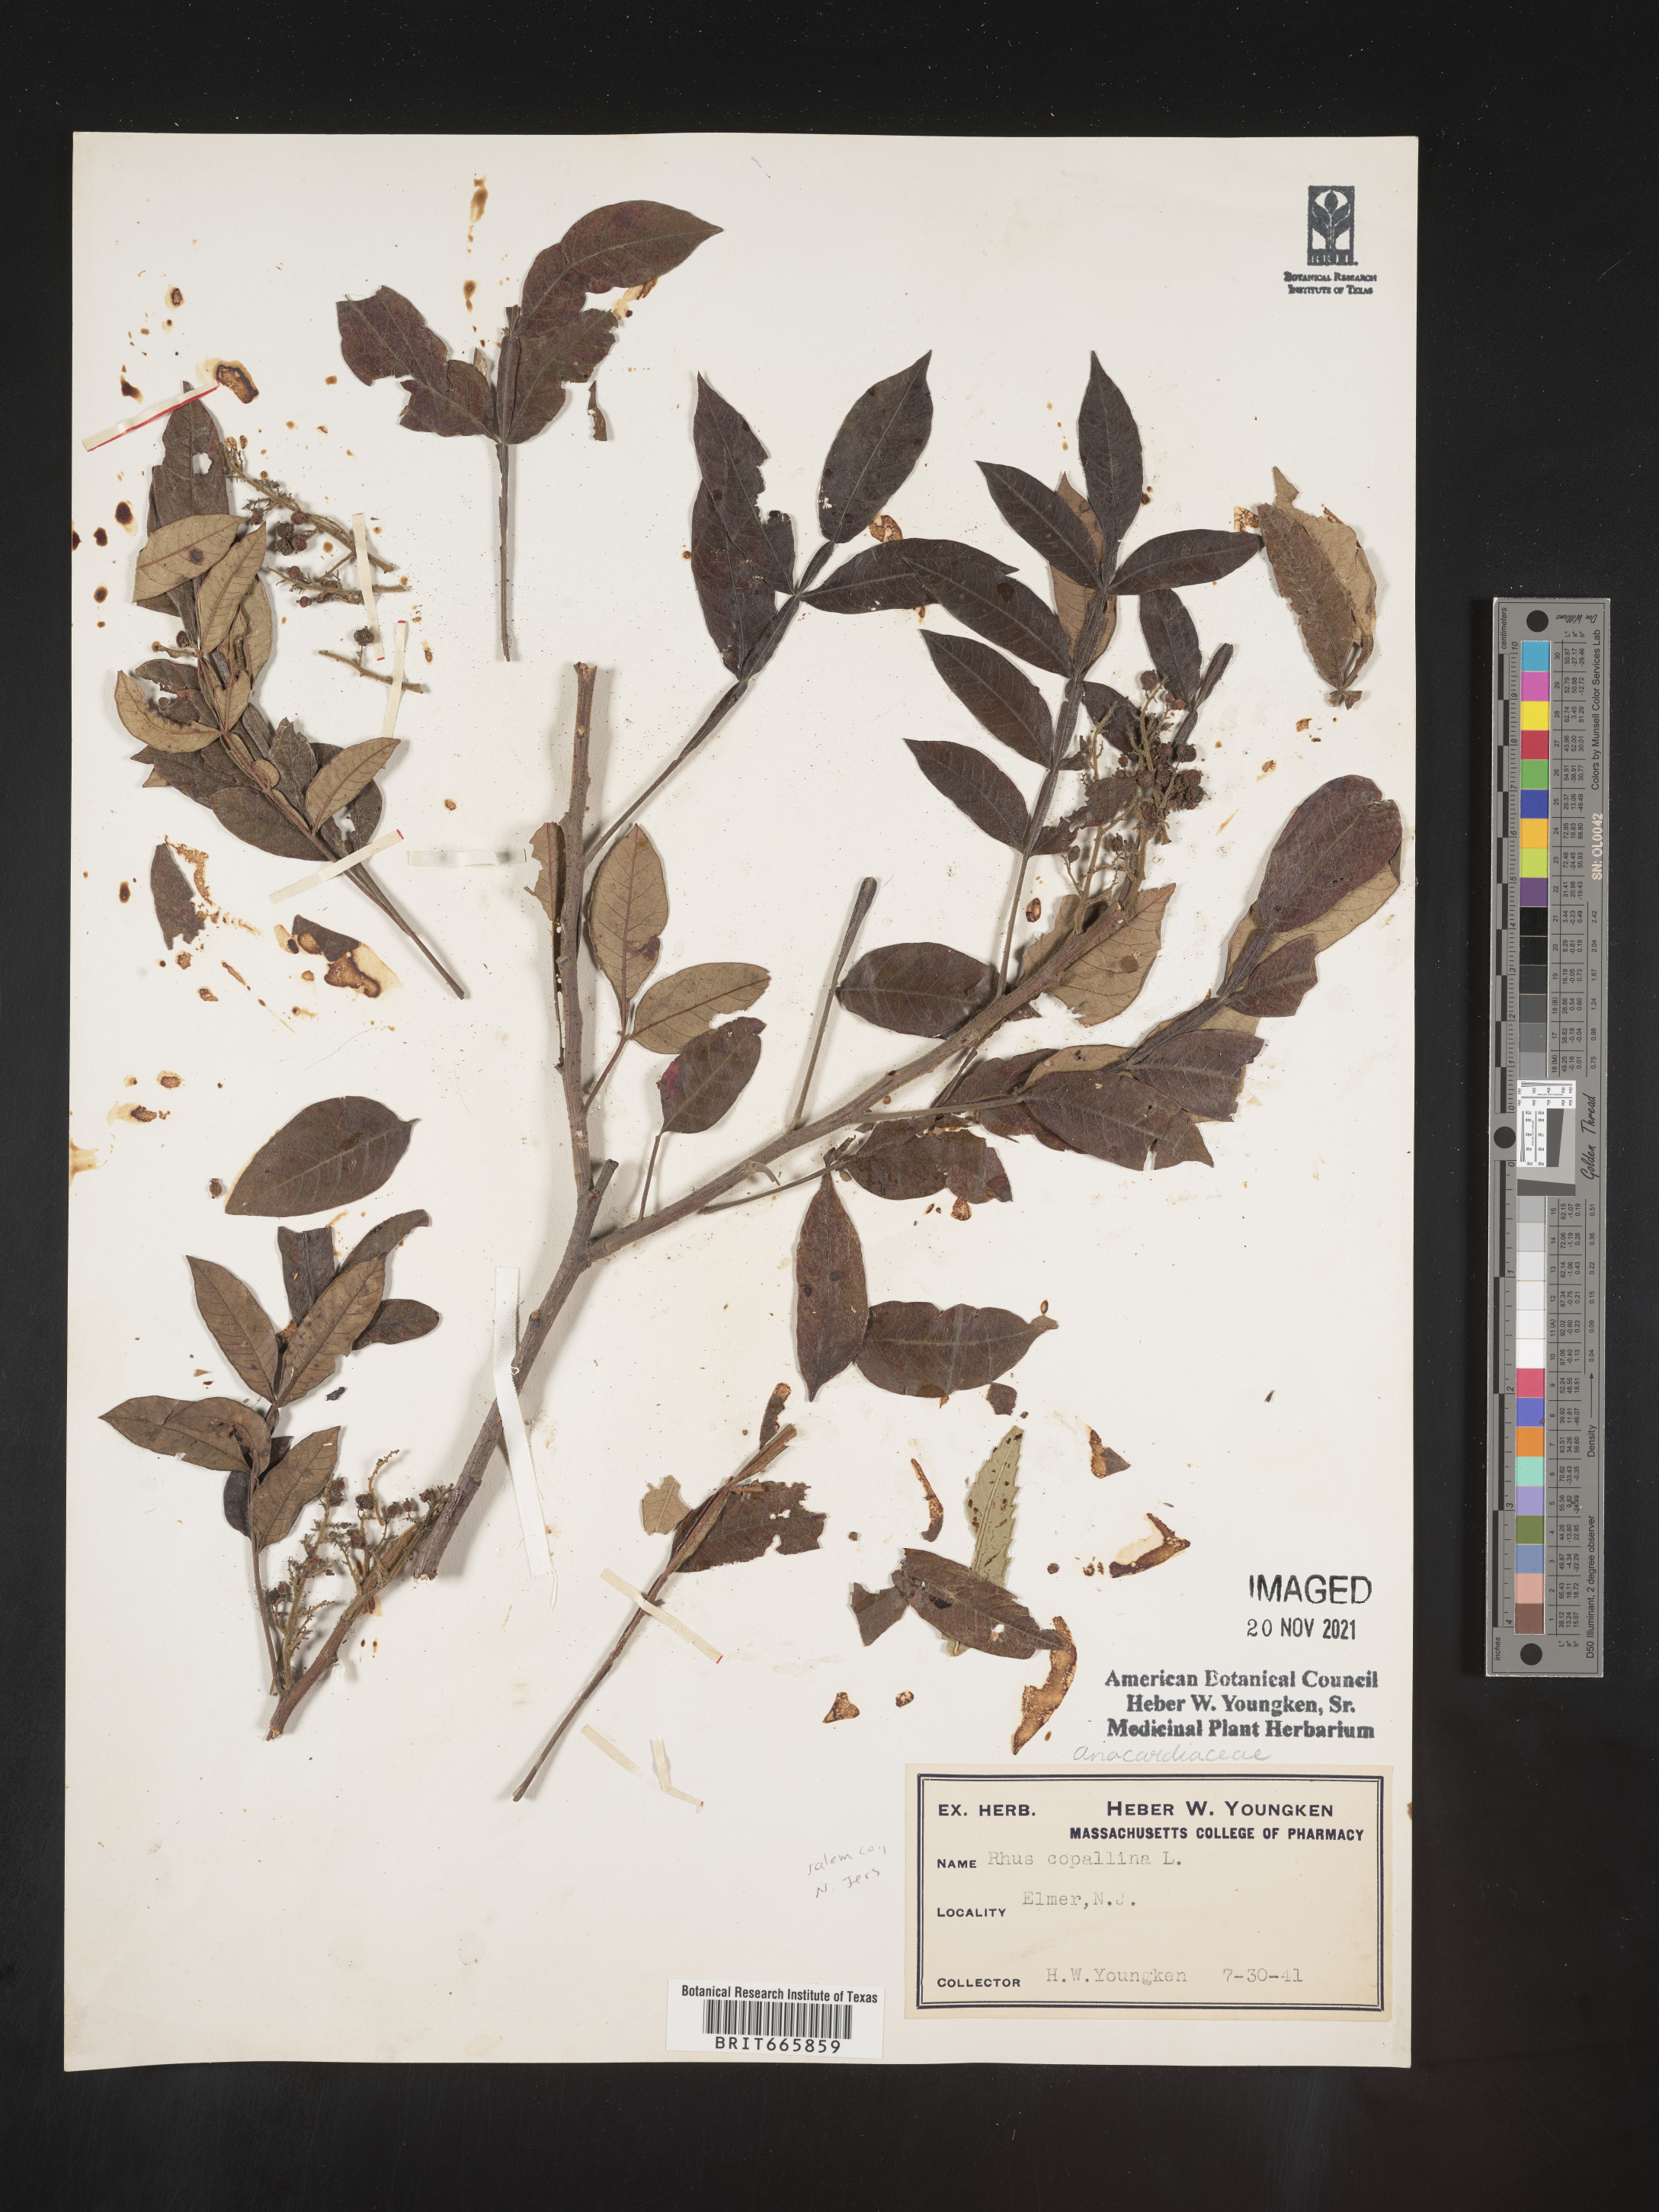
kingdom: Plantae
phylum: Tracheophyta
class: Magnoliopsida
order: Sapindales
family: Anacardiaceae
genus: Rhus
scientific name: Rhus copallina
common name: Shining sumac
